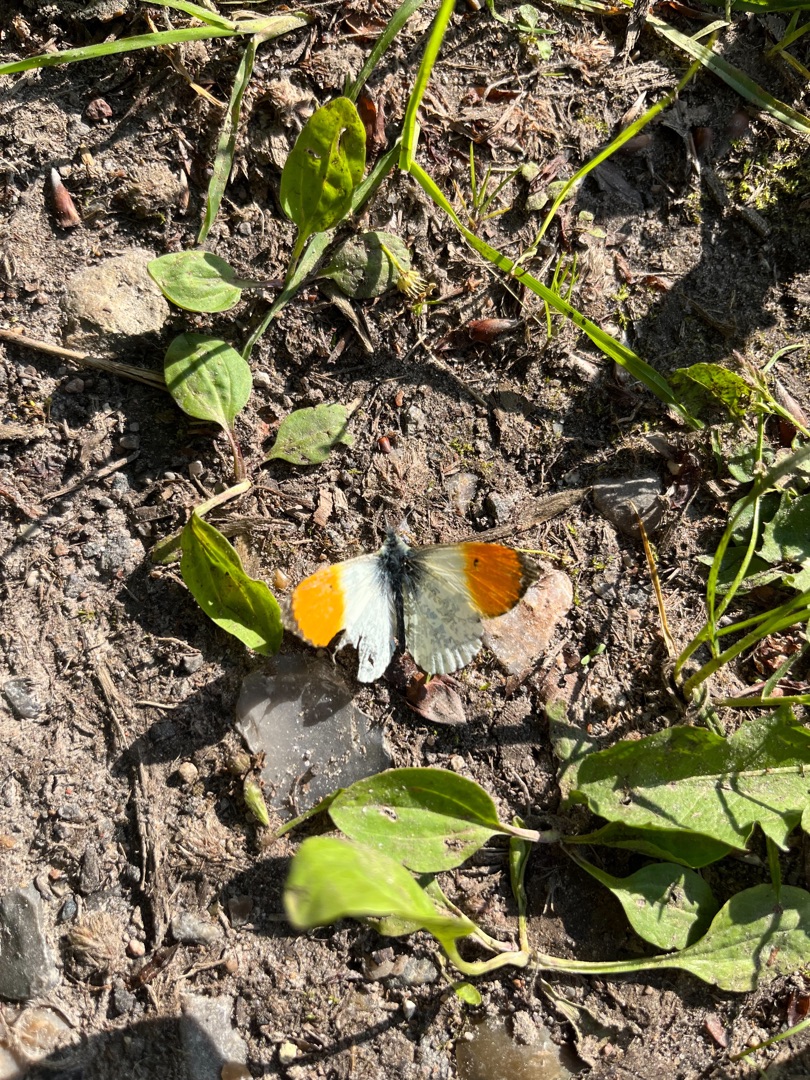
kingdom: Animalia
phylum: Arthropoda
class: Insecta
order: Lepidoptera
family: Pieridae
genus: Anthocharis
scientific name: Anthocharis cardamines
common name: Aurora
